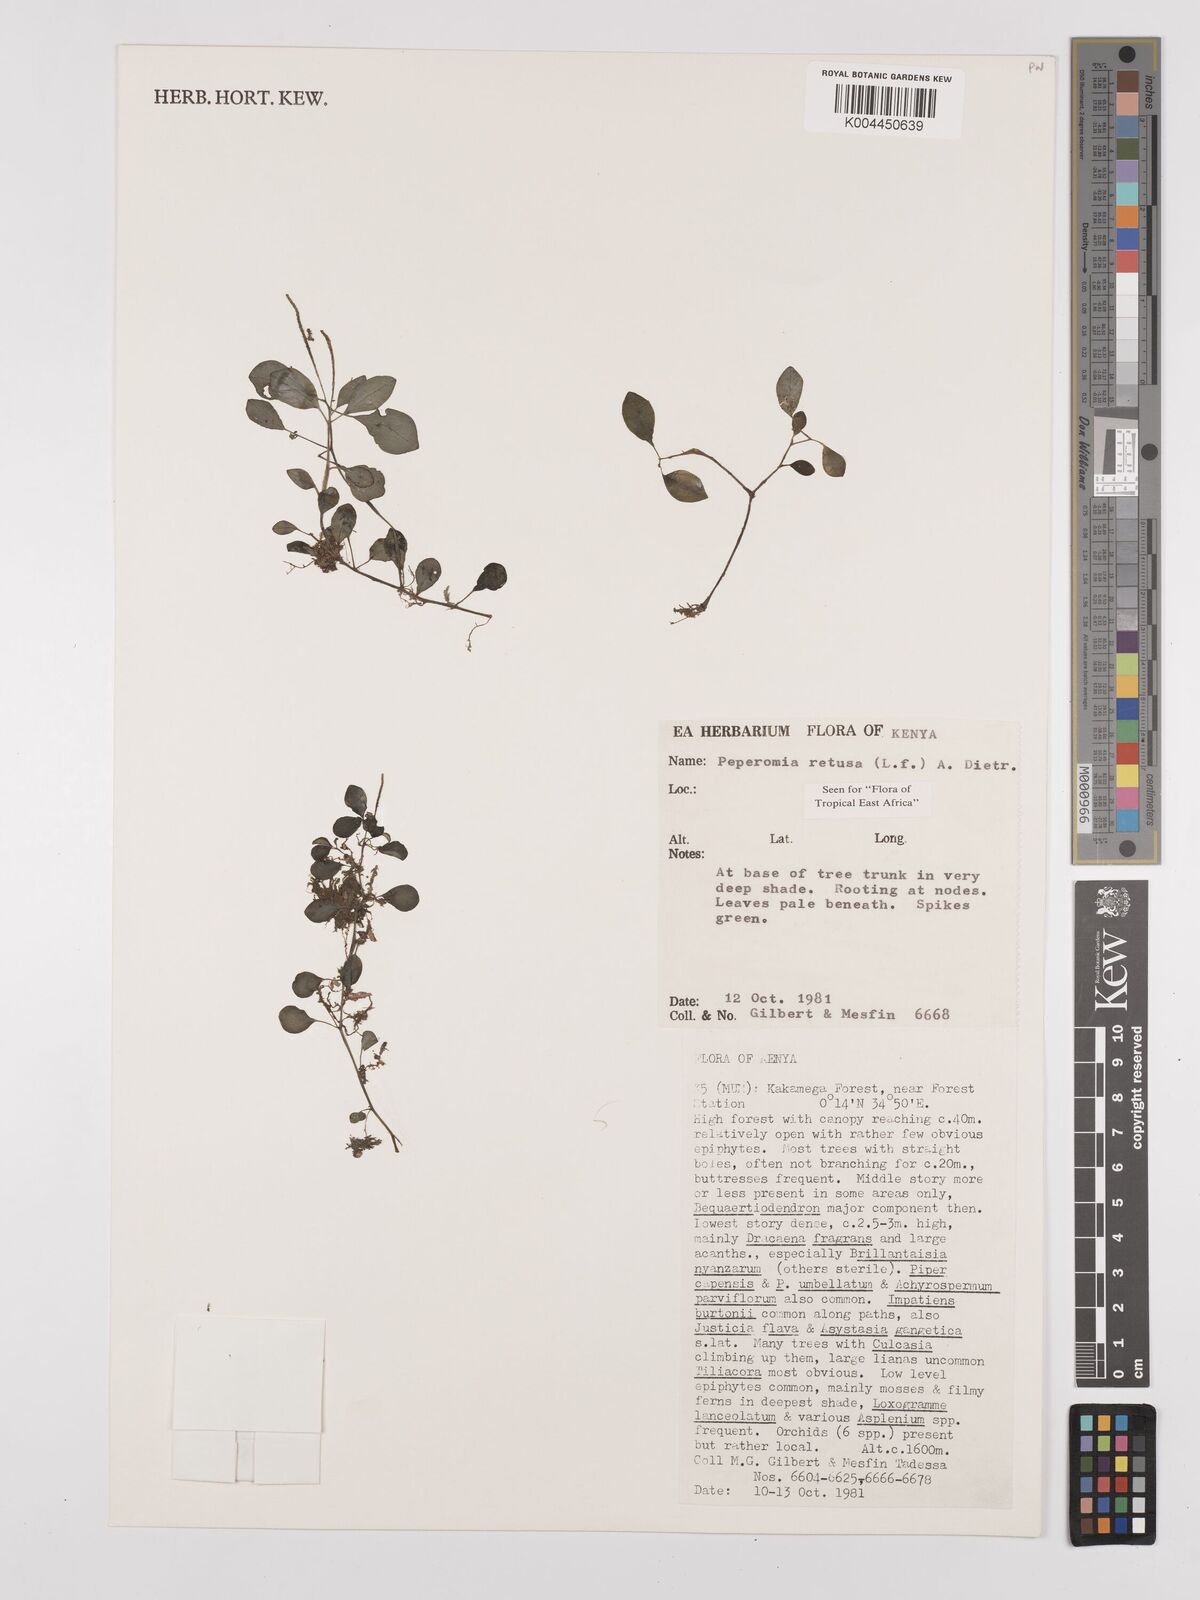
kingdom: Plantae
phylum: Tracheophyta
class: Magnoliopsida
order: Piperales
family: Piperaceae
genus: Peperomia
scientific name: Peperomia retusa
